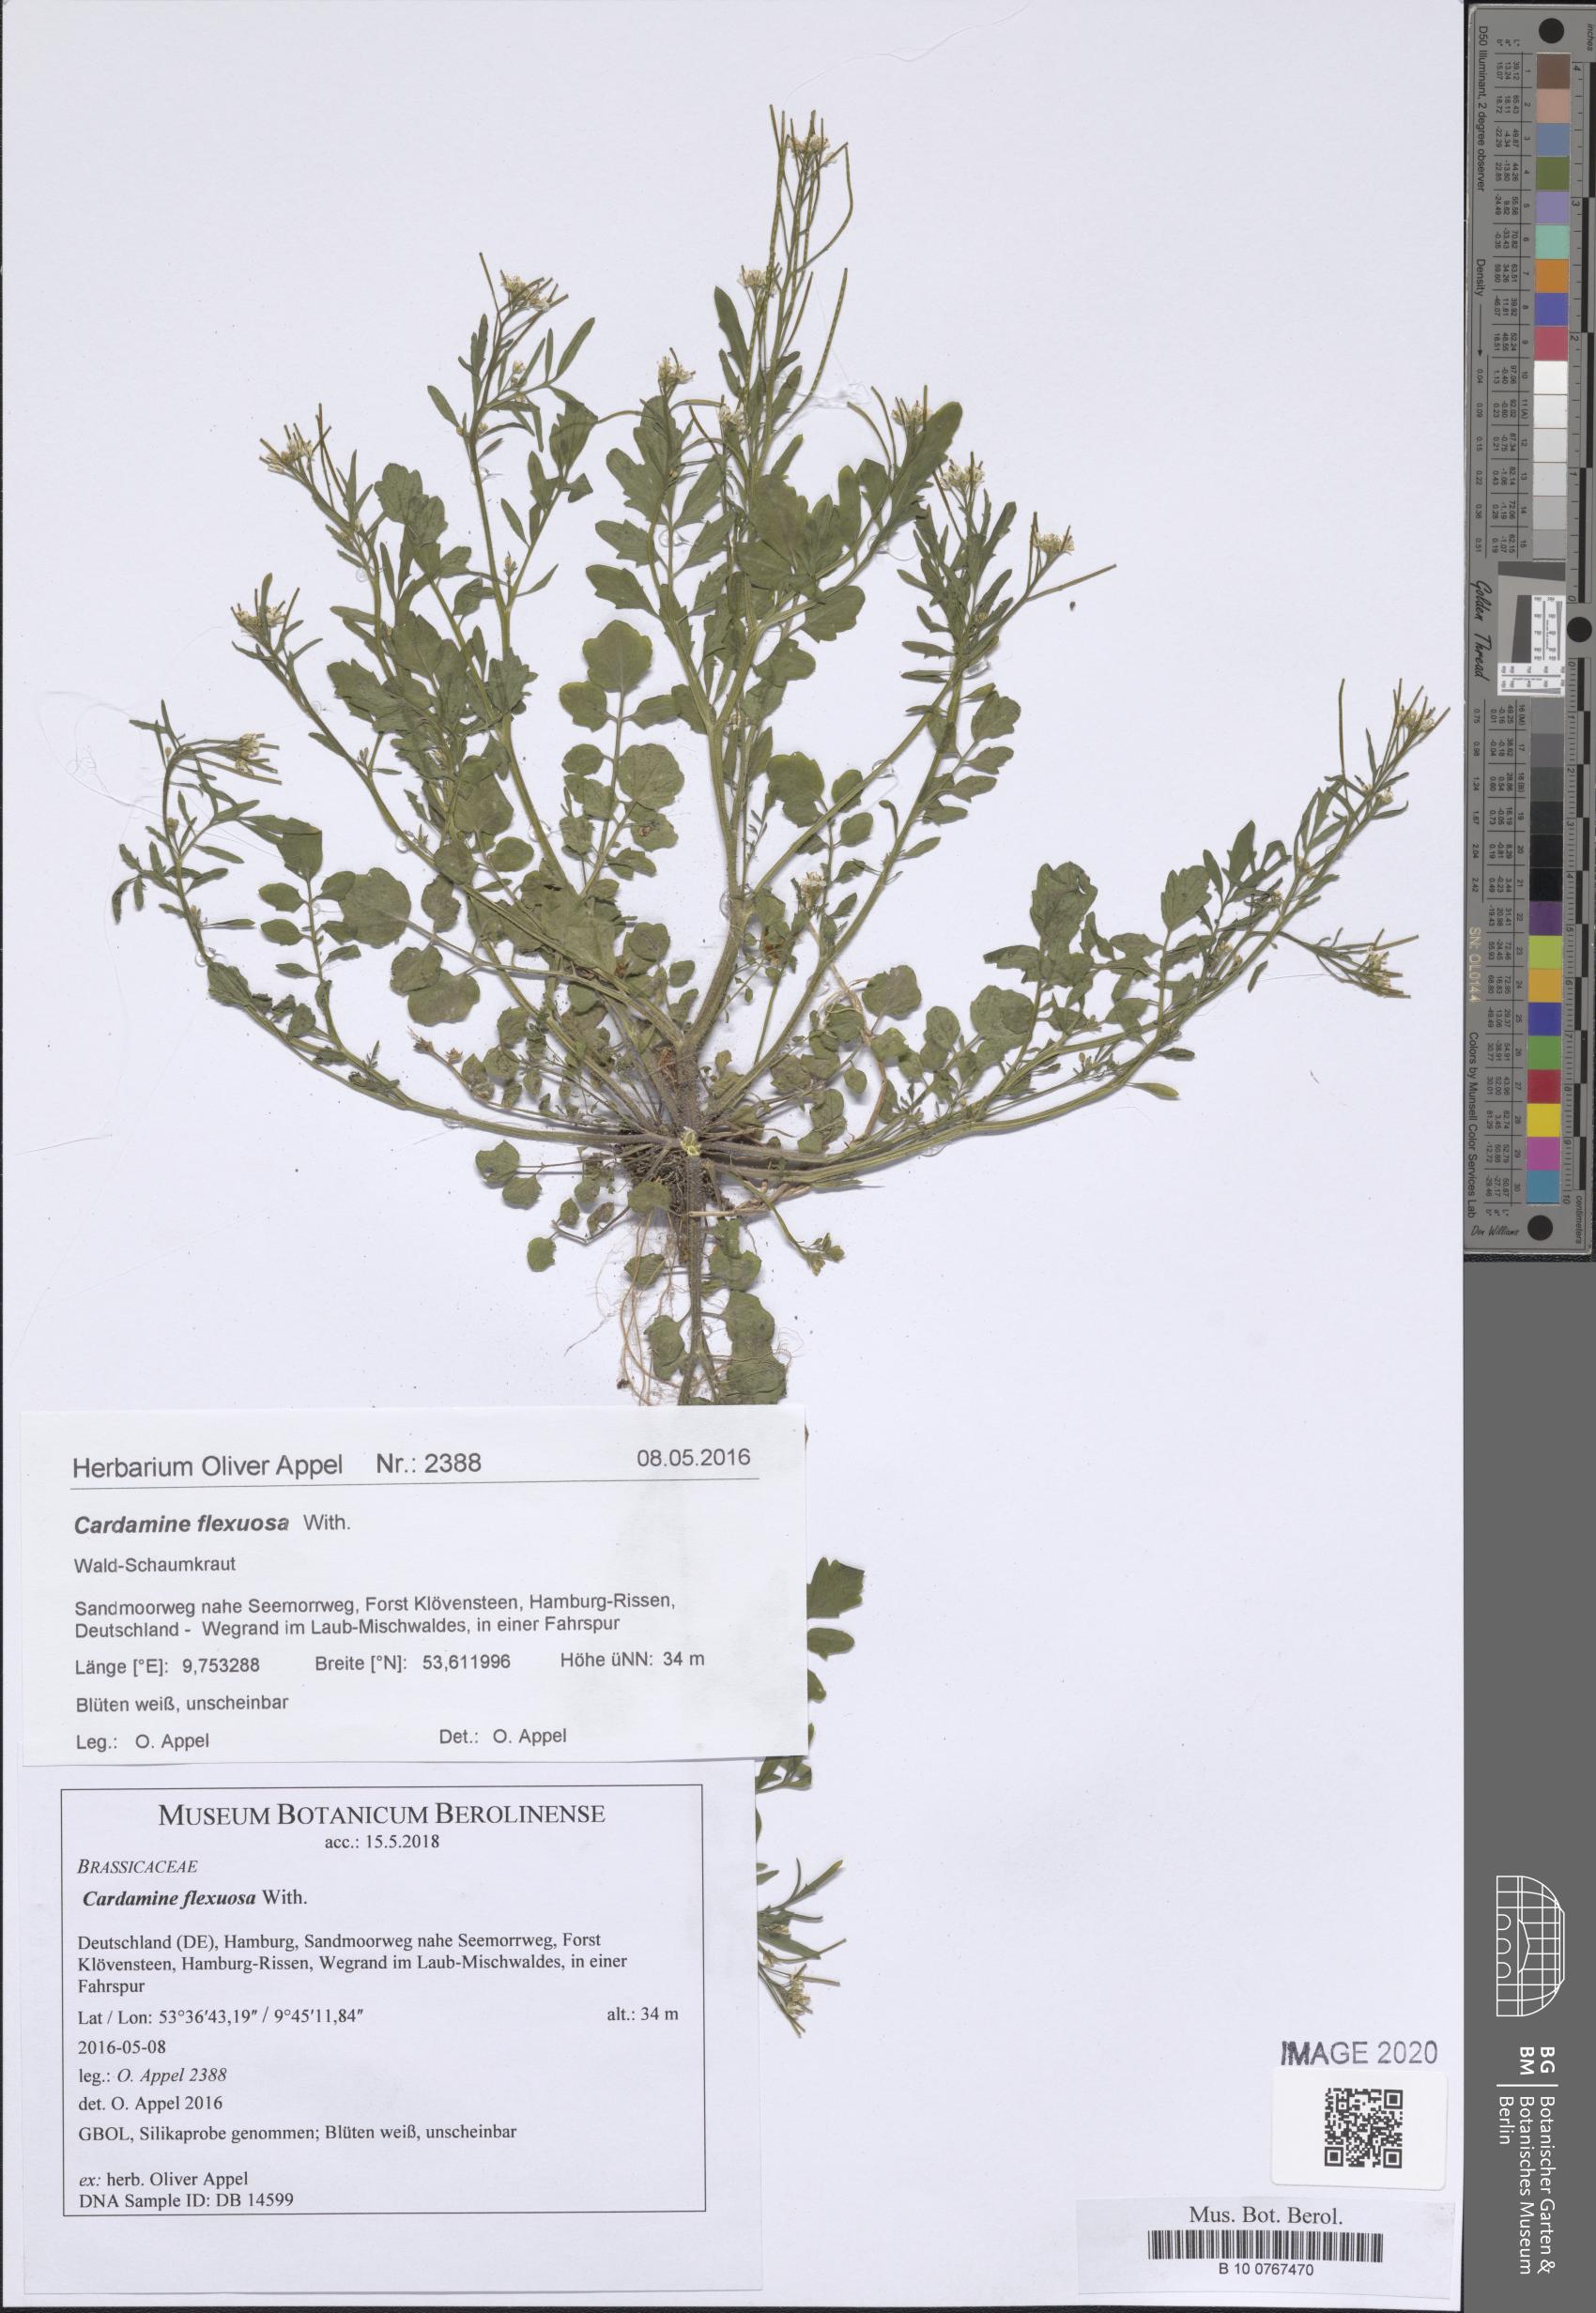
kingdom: Plantae
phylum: Tracheophyta
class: Magnoliopsida
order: Brassicales
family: Brassicaceae
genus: Cardamine
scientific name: Cardamine flexuosa
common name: Woodland bittercress
